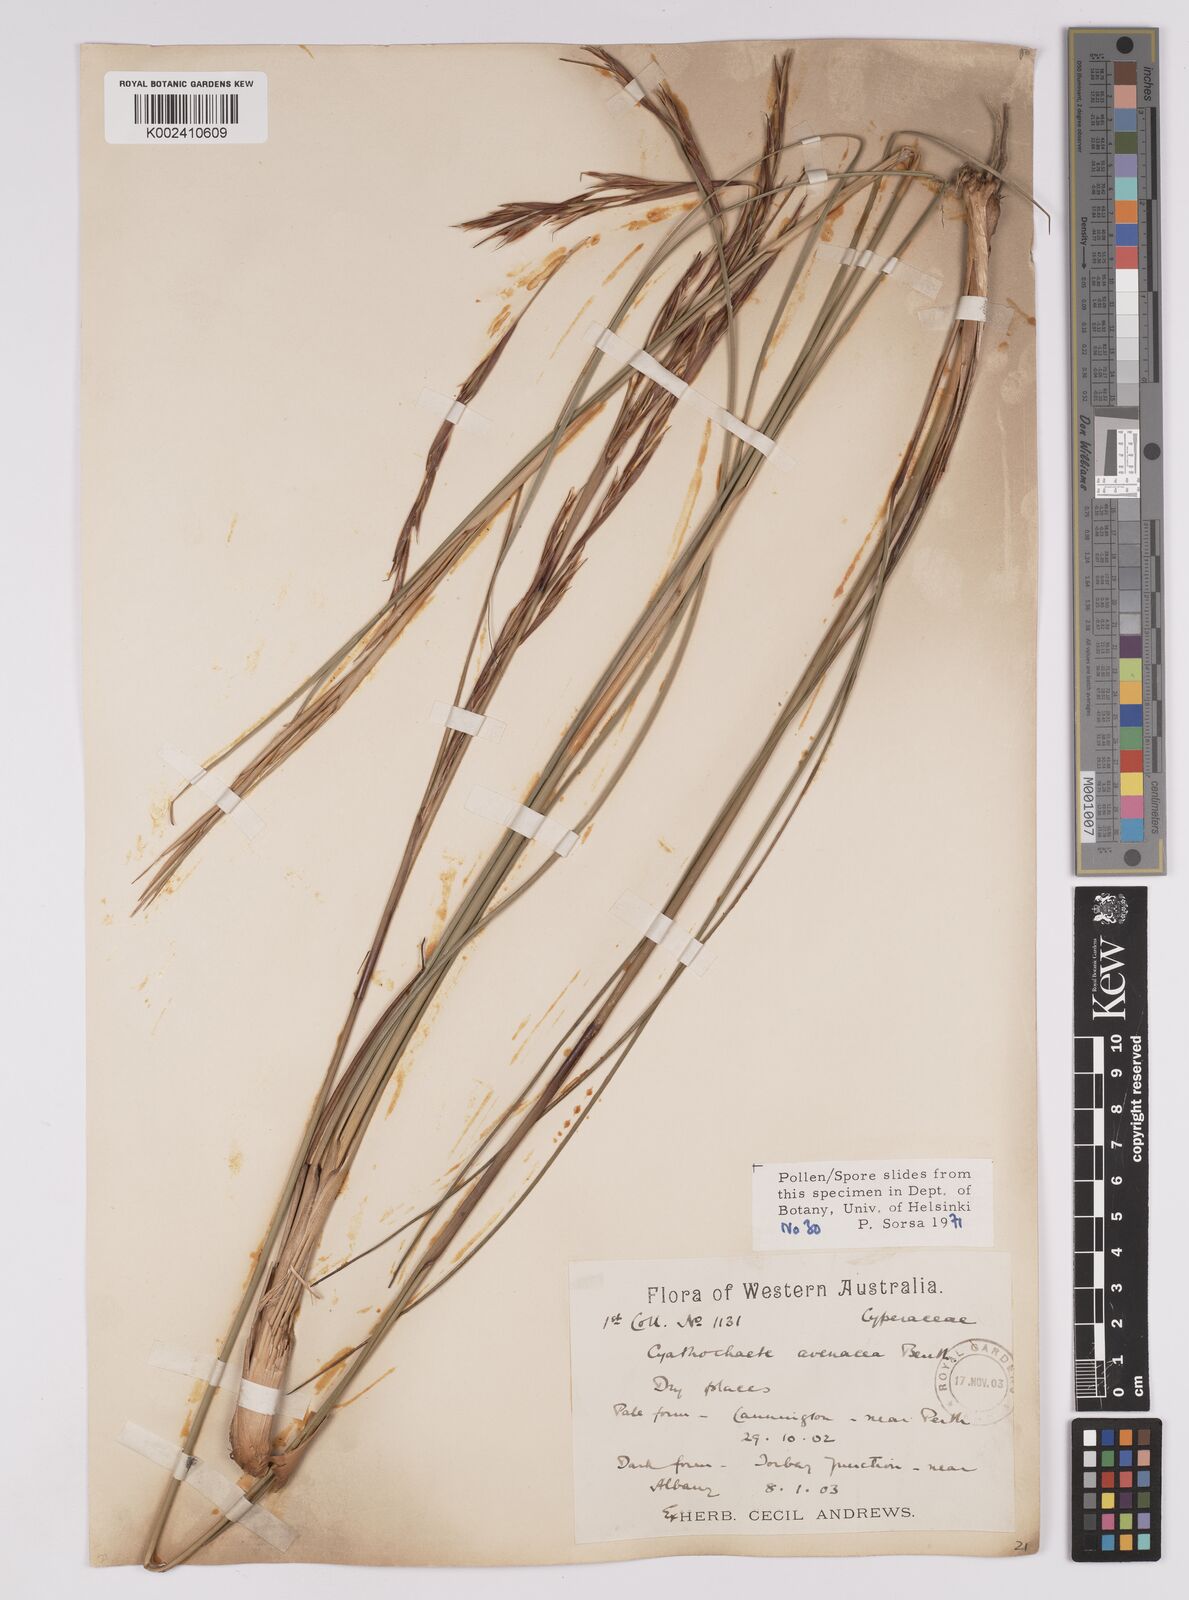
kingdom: Plantae
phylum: Tracheophyta
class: Liliopsida
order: Poales
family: Cyperaceae
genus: Cyathochaeta
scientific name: Cyathochaeta avenacea
